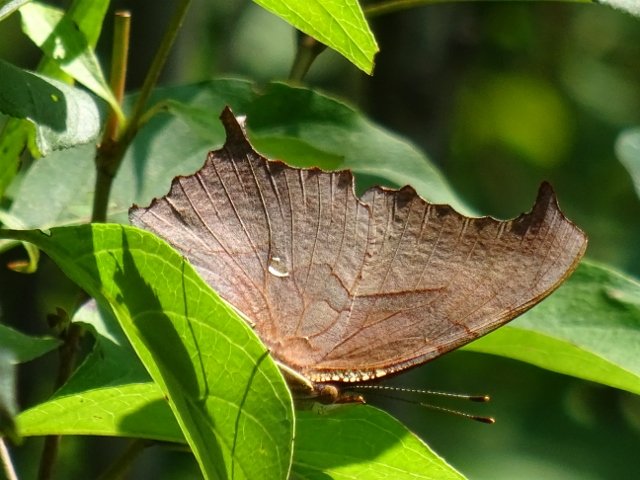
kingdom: Animalia
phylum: Arthropoda
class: Insecta
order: Lepidoptera
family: Nymphalidae
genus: Polygonia
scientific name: Polygonia interrogationis
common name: Question Mark
